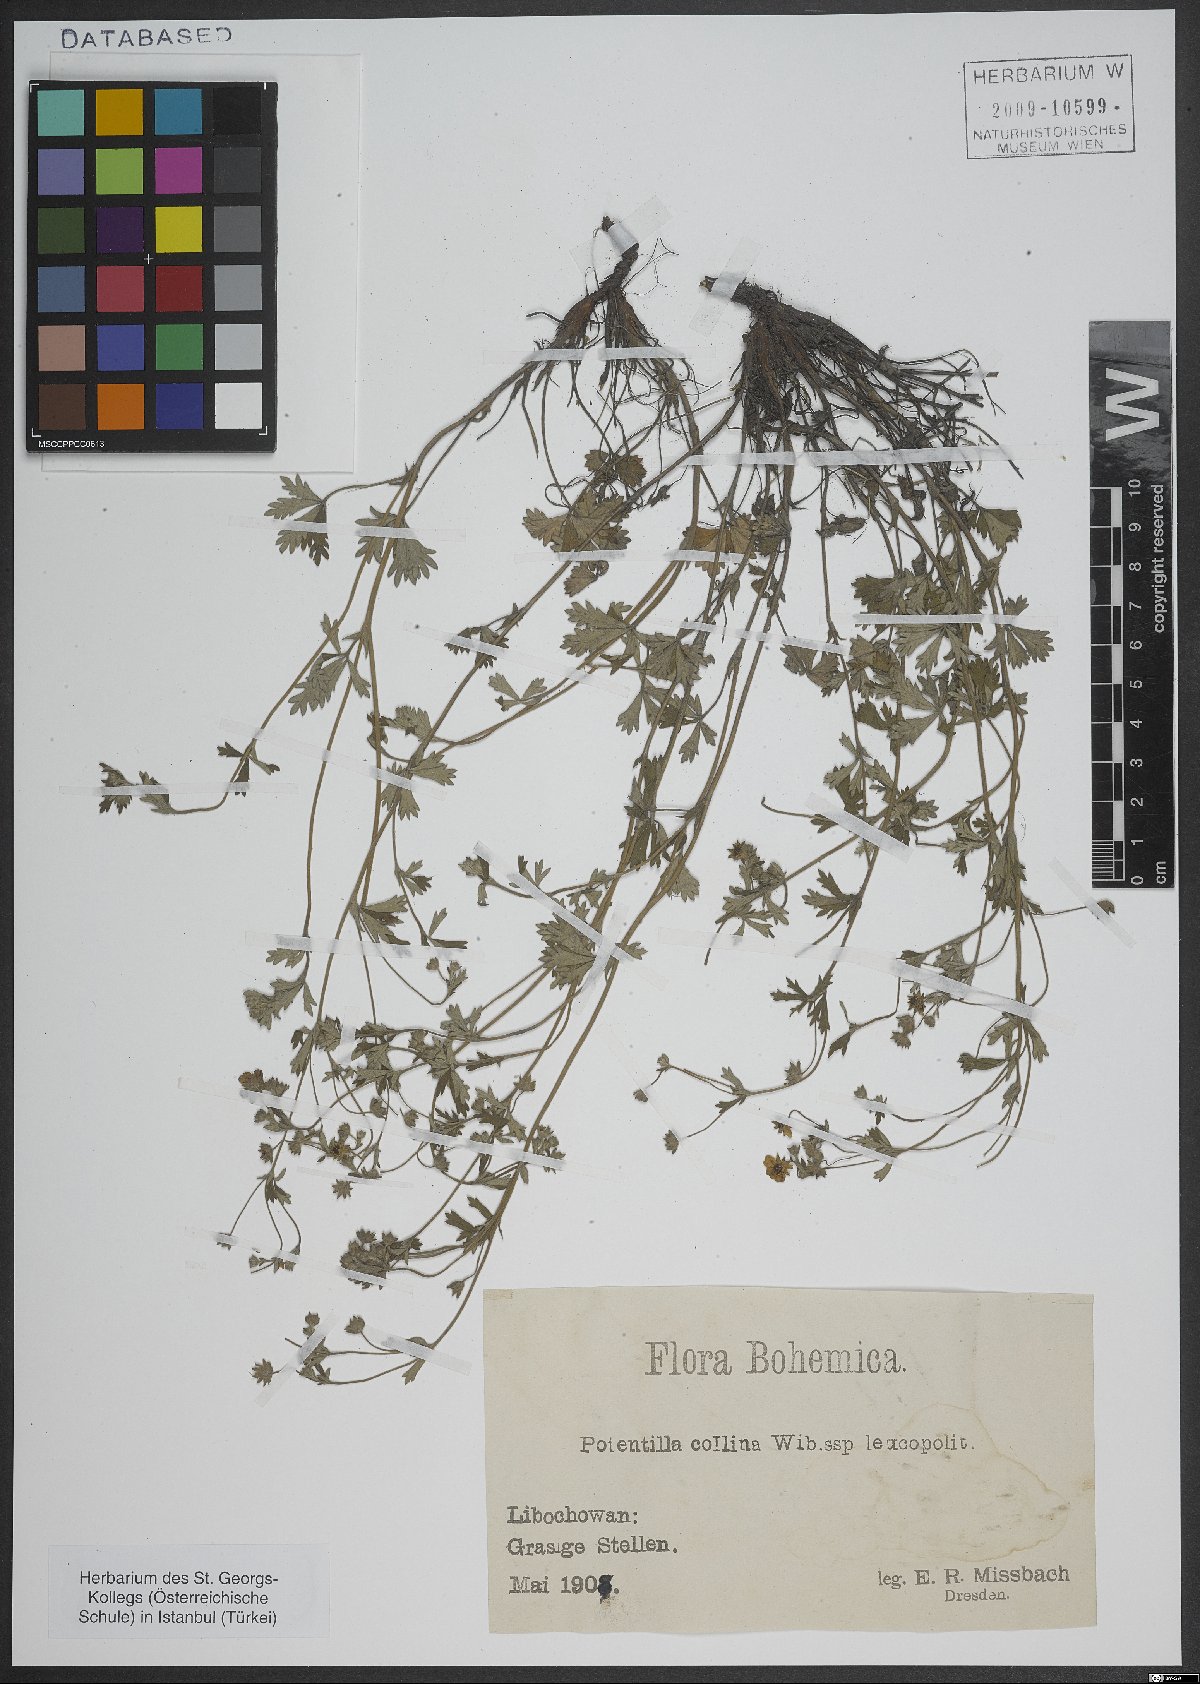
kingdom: Plantae
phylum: Tracheophyta
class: Magnoliopsida
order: Rosales
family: Rosaceae
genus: Potentilla
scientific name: Potentilla collina
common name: Palmleaf cinquefoil
